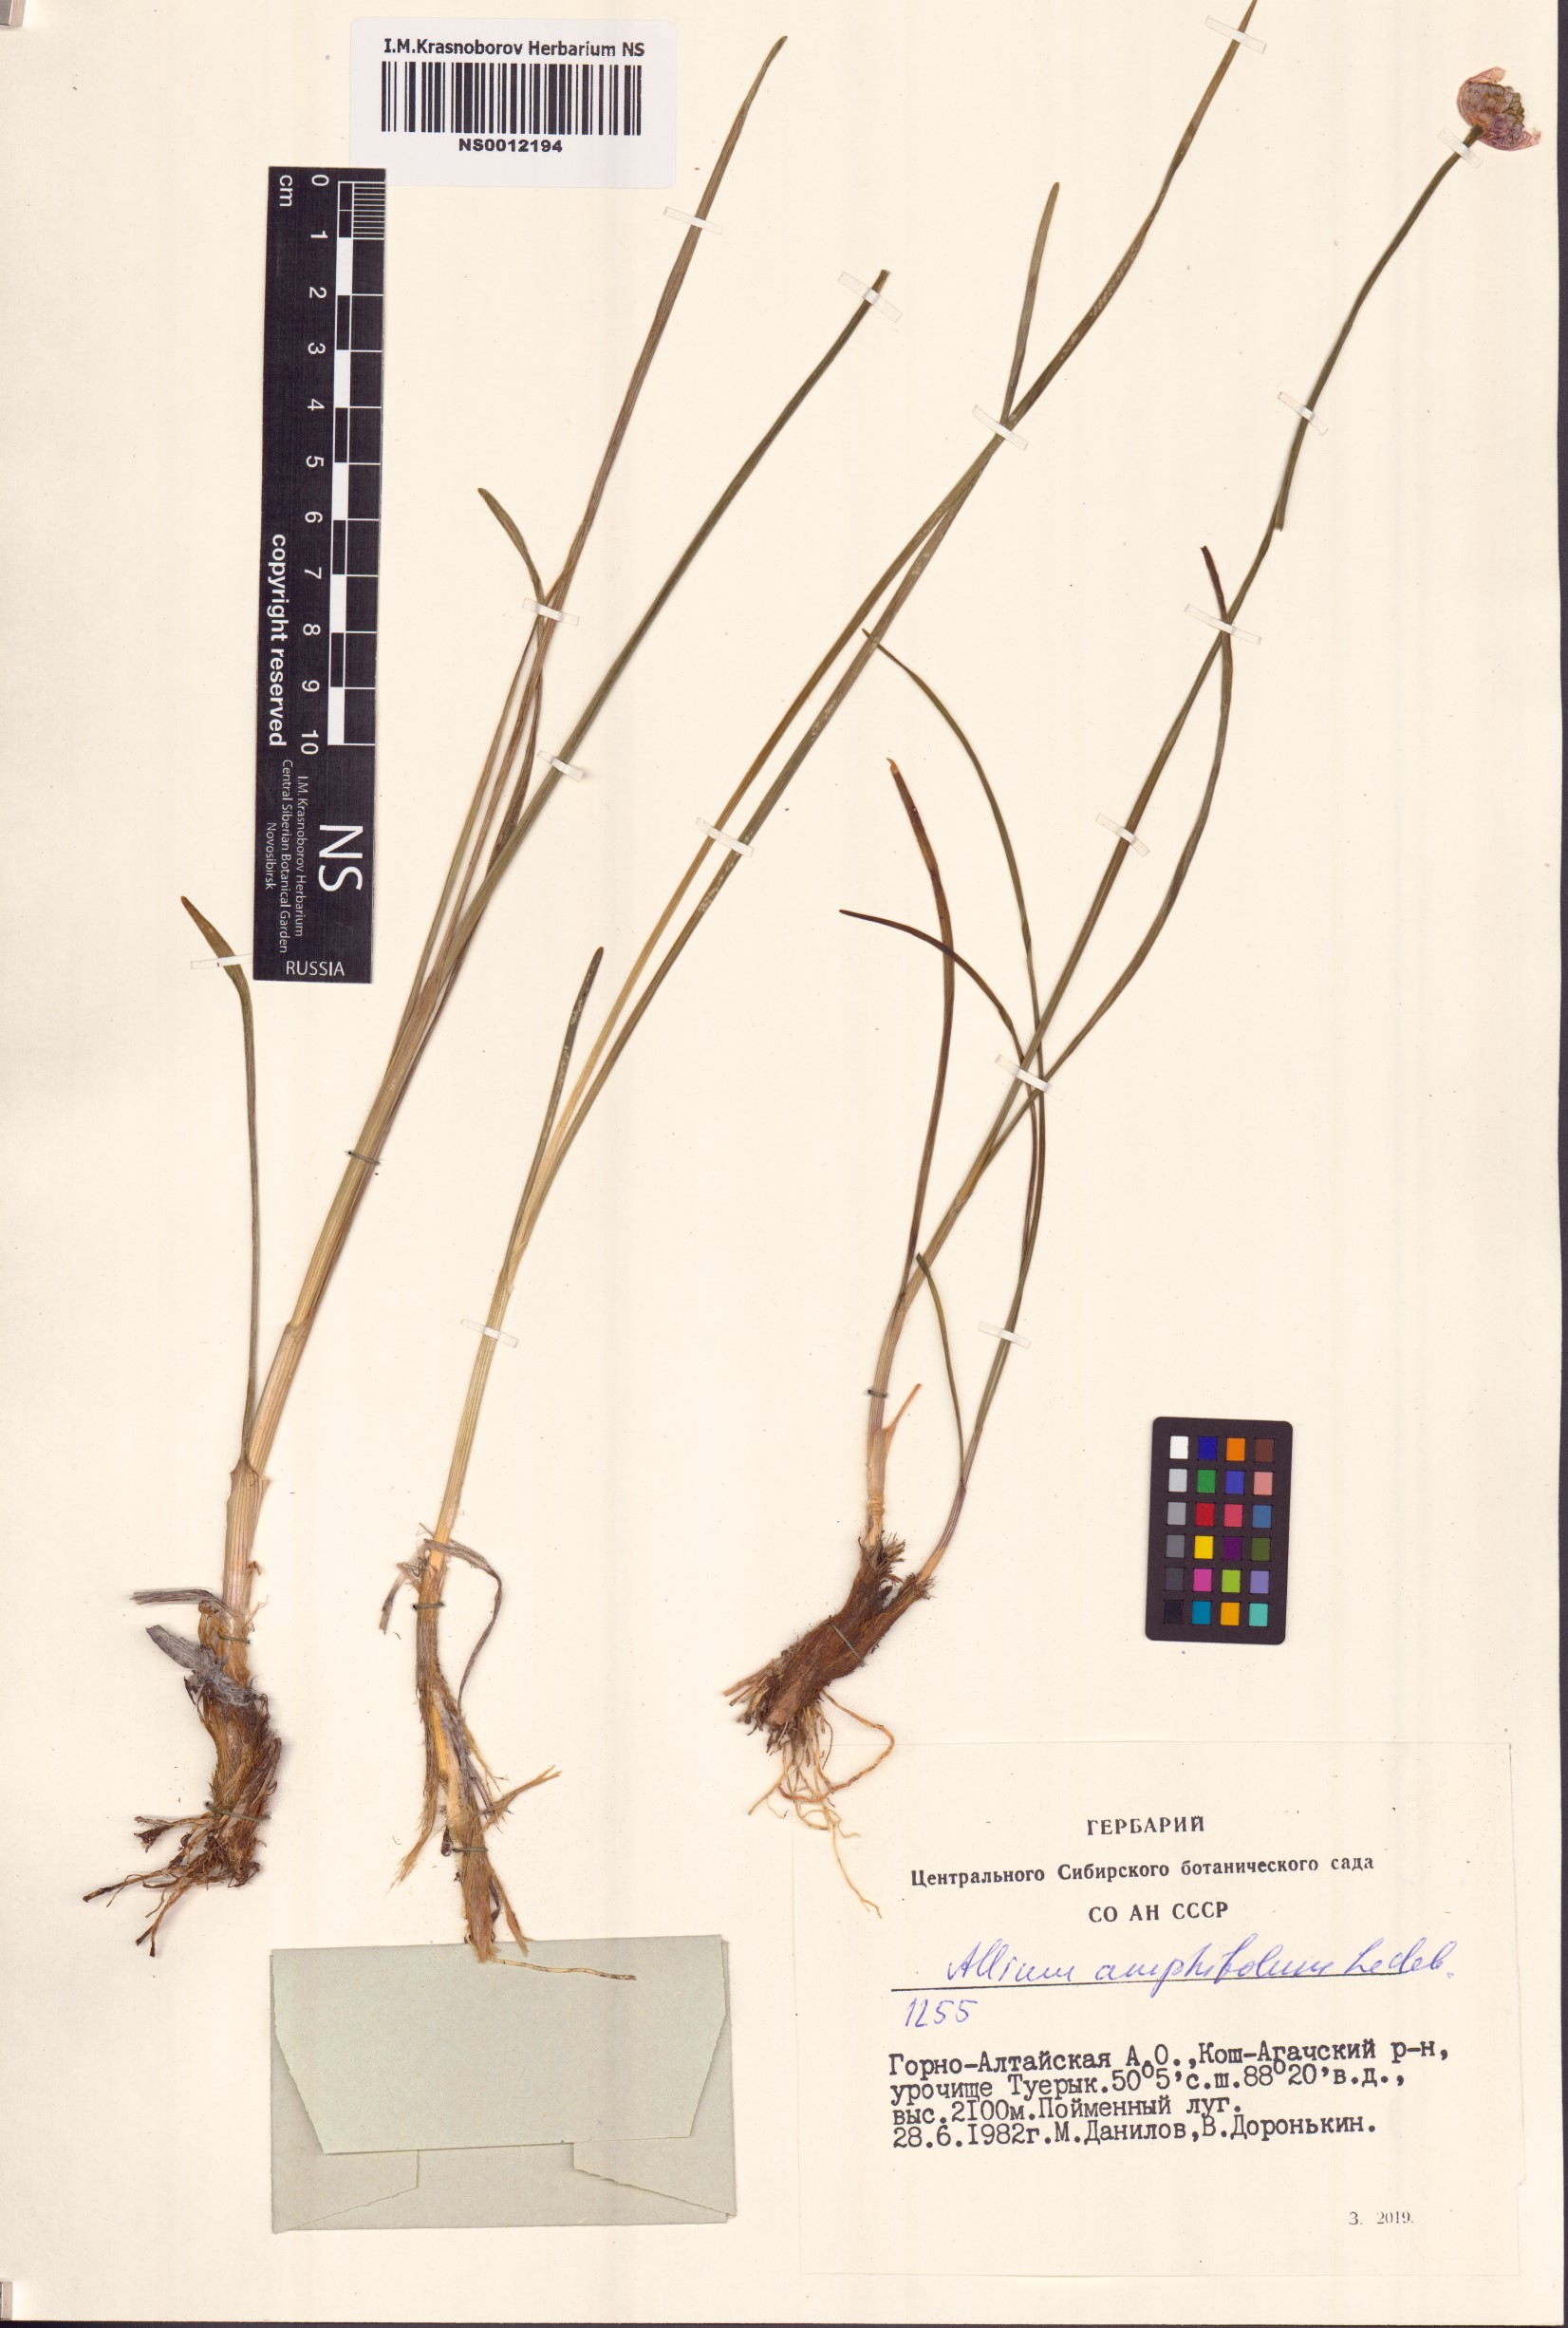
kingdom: Plantae
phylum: Tracheophyta
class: Liliopsida
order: Asparagales
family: Amaryllidaceae
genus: Allium
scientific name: Allium amphibolum
